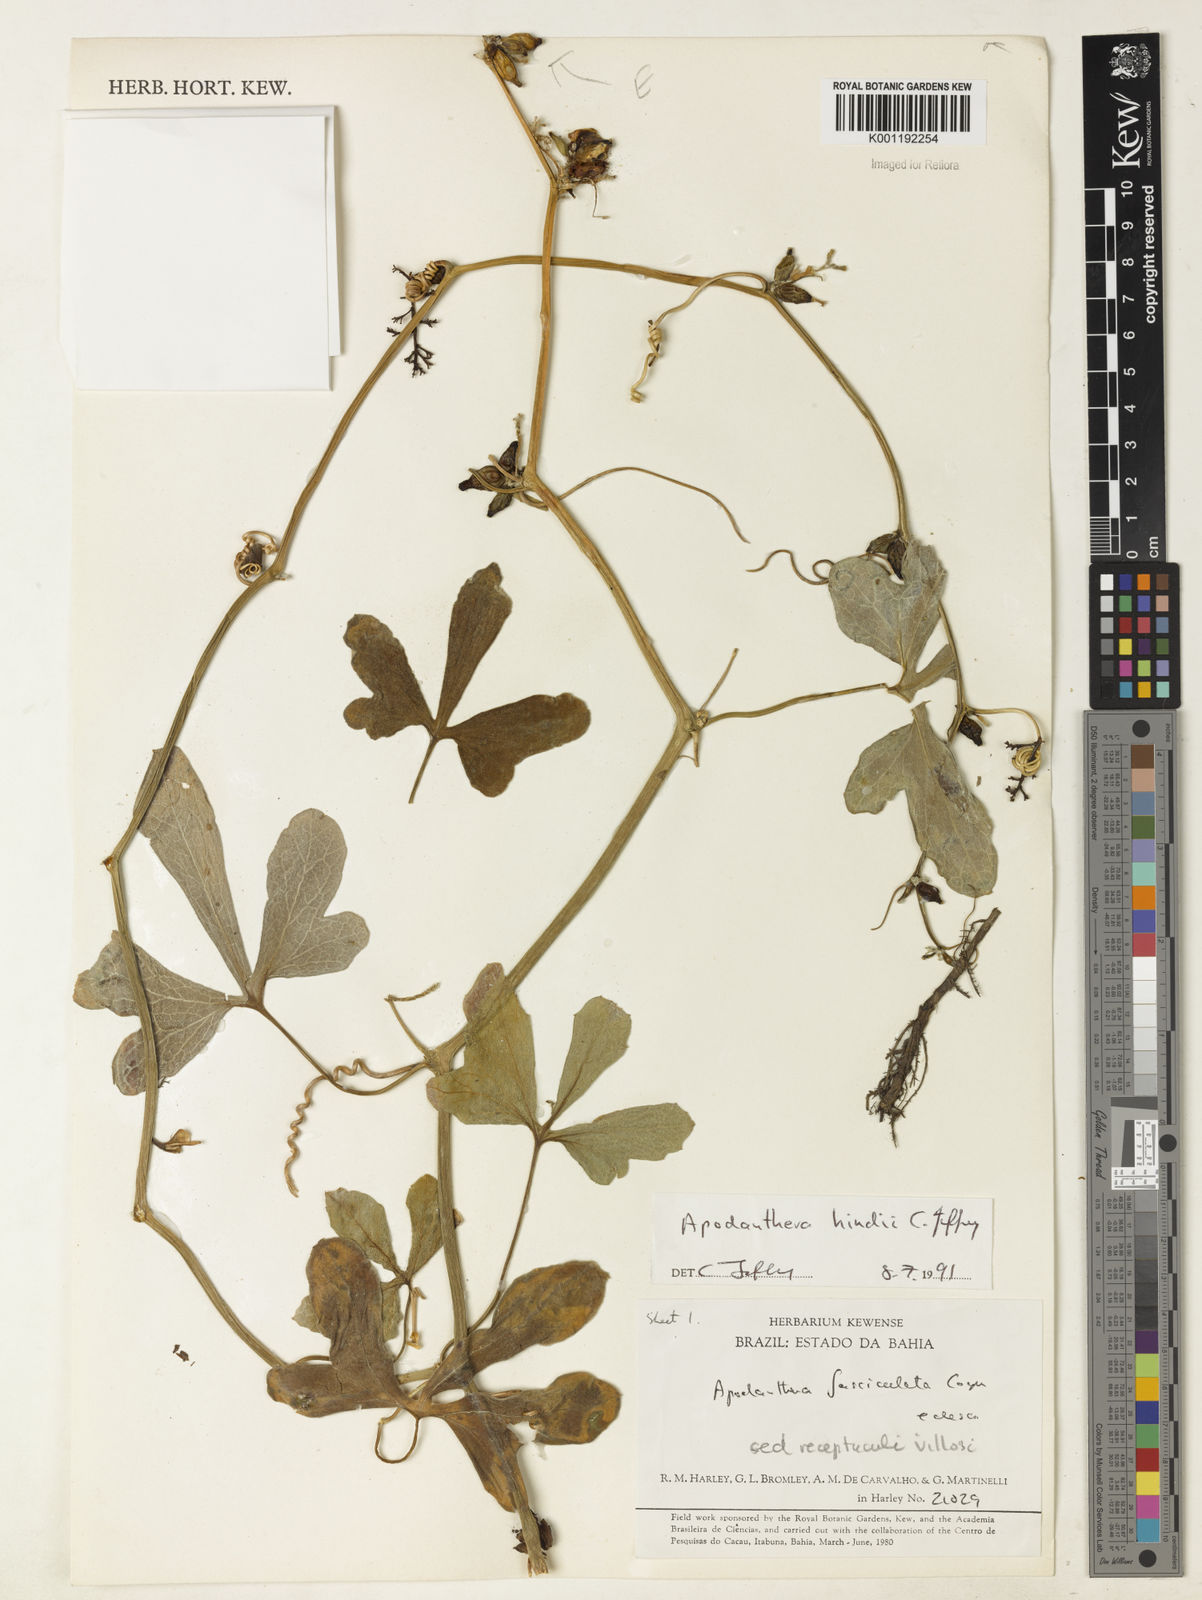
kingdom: Plantae
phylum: Tracheophyta
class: Magnoliopsida
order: Cucurbitales
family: Cucurbitaceae
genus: Apodanthera
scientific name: Apodanthera hindii
